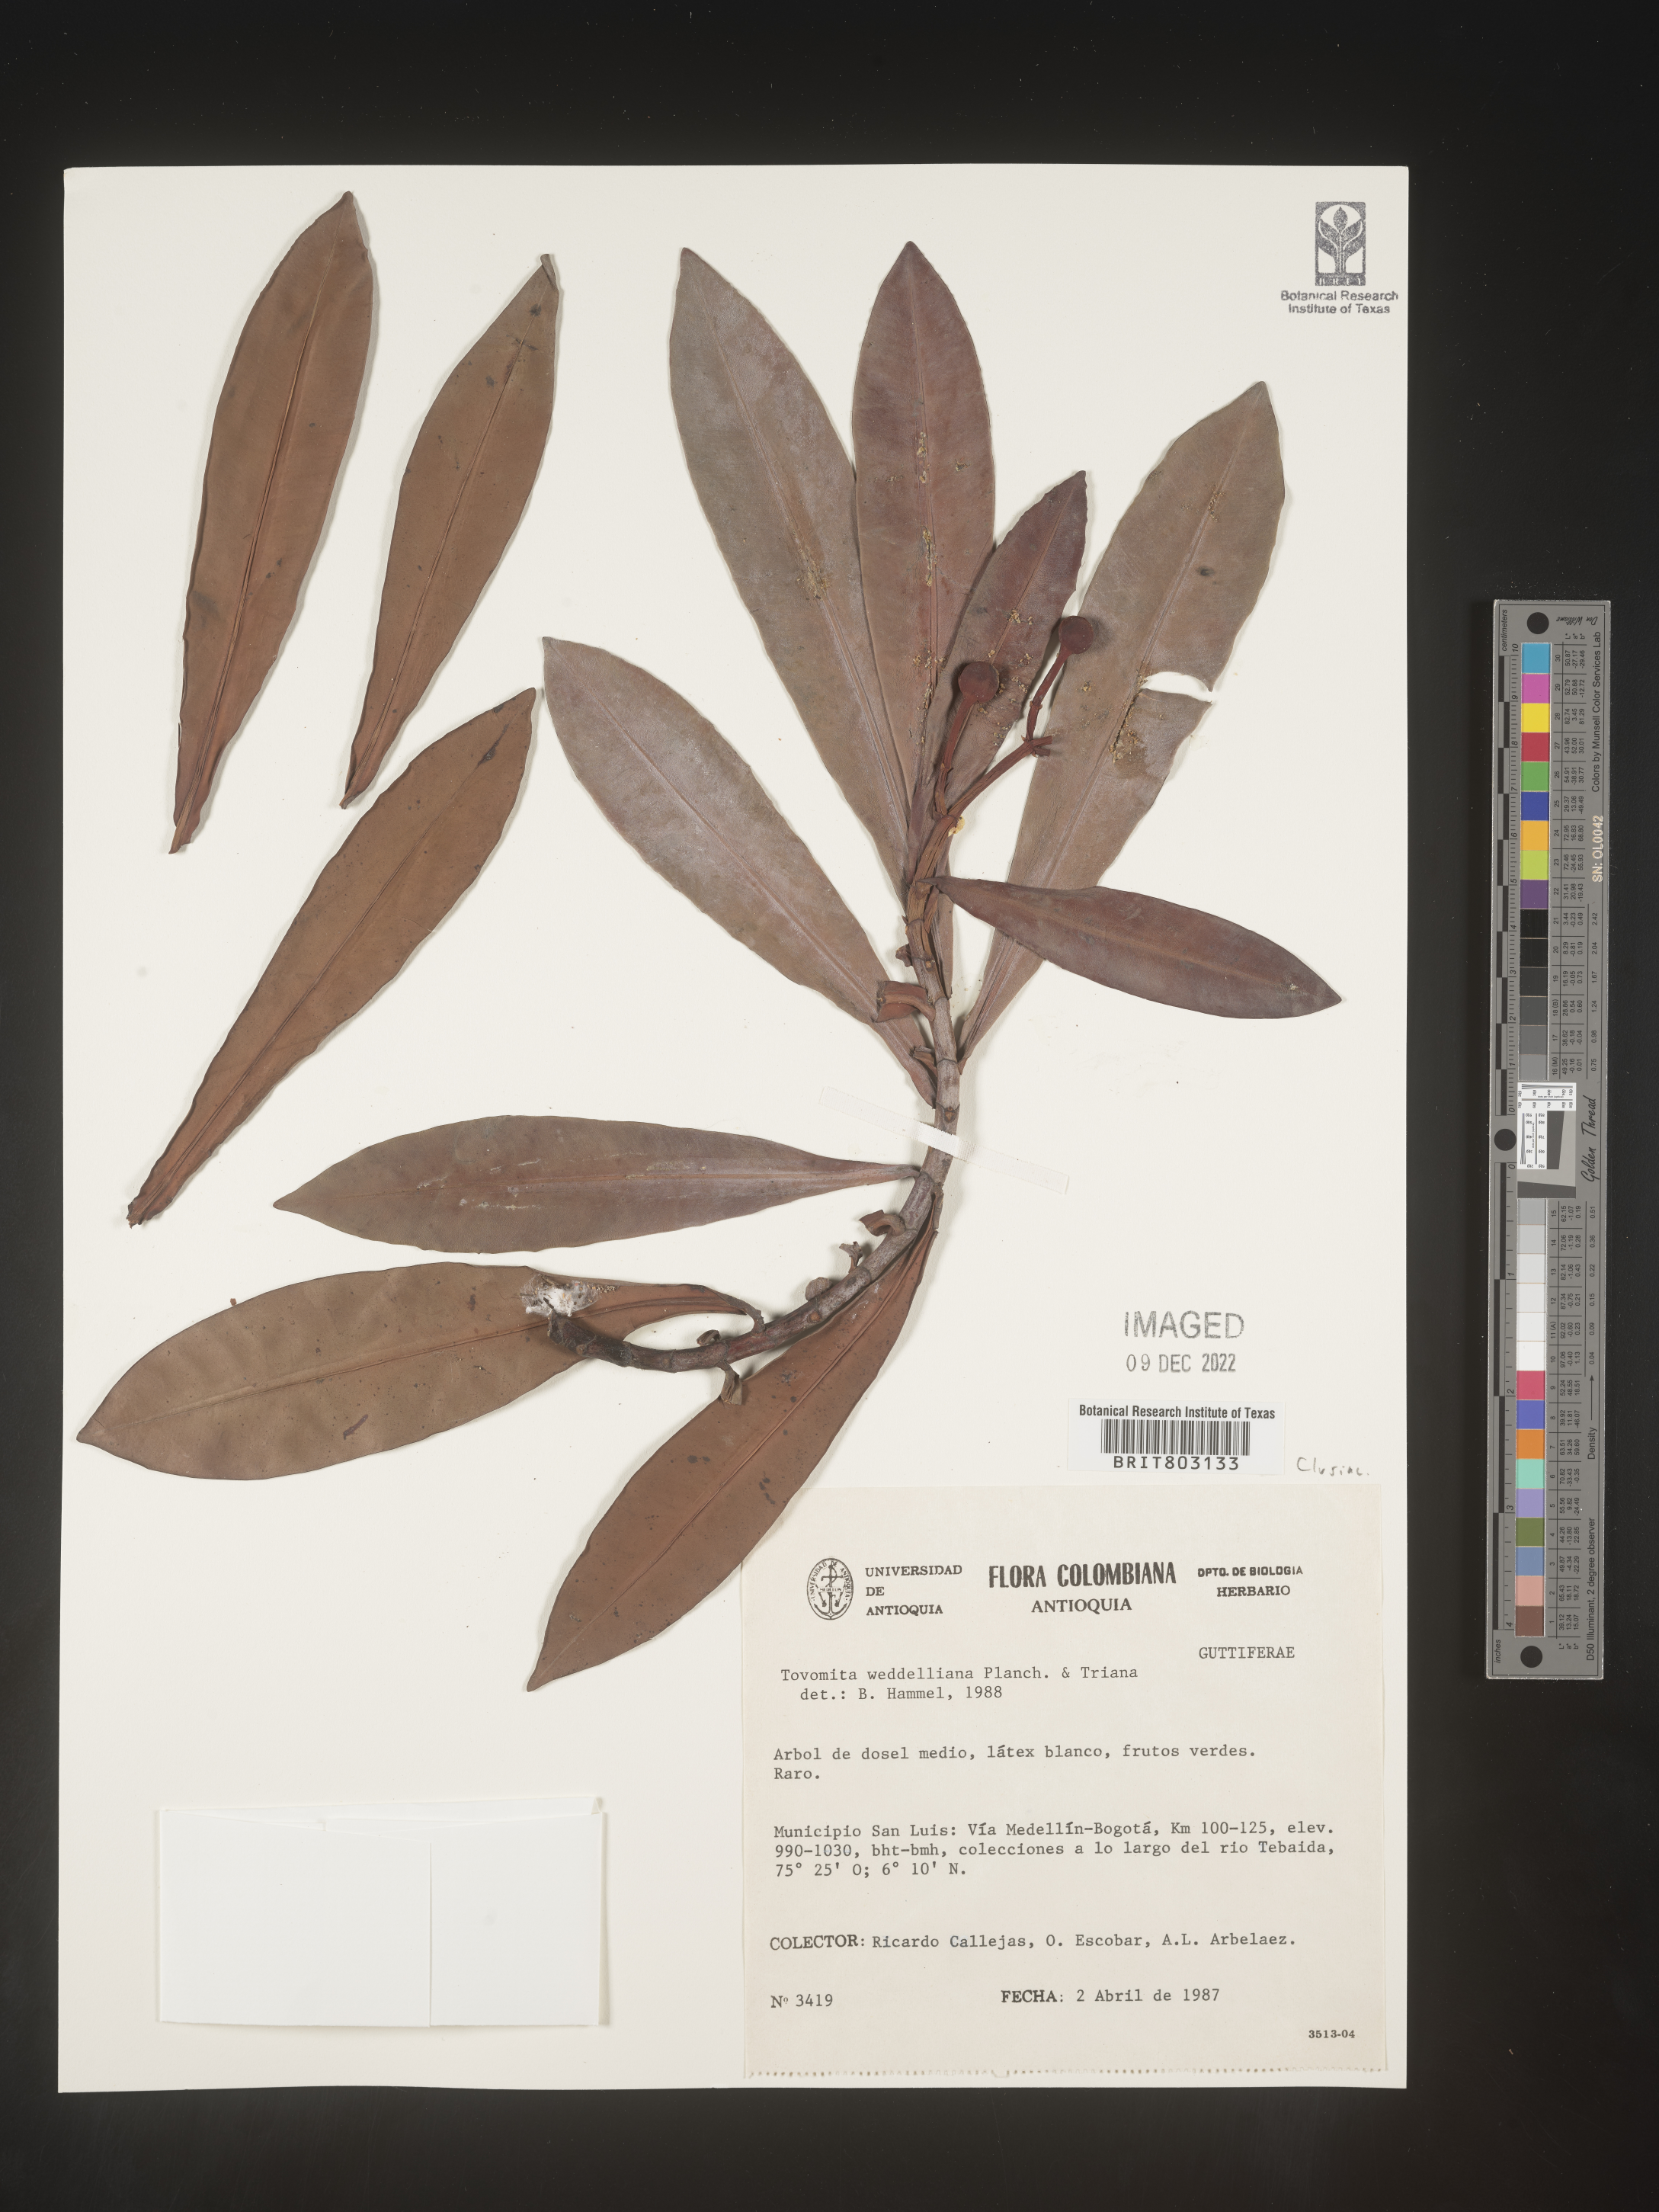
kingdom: Plantae
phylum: Tracheophyta
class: Magnoliopsida
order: Malpighiales
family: Clusiaceae
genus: Arawakia
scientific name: Arawakia weddelliana
